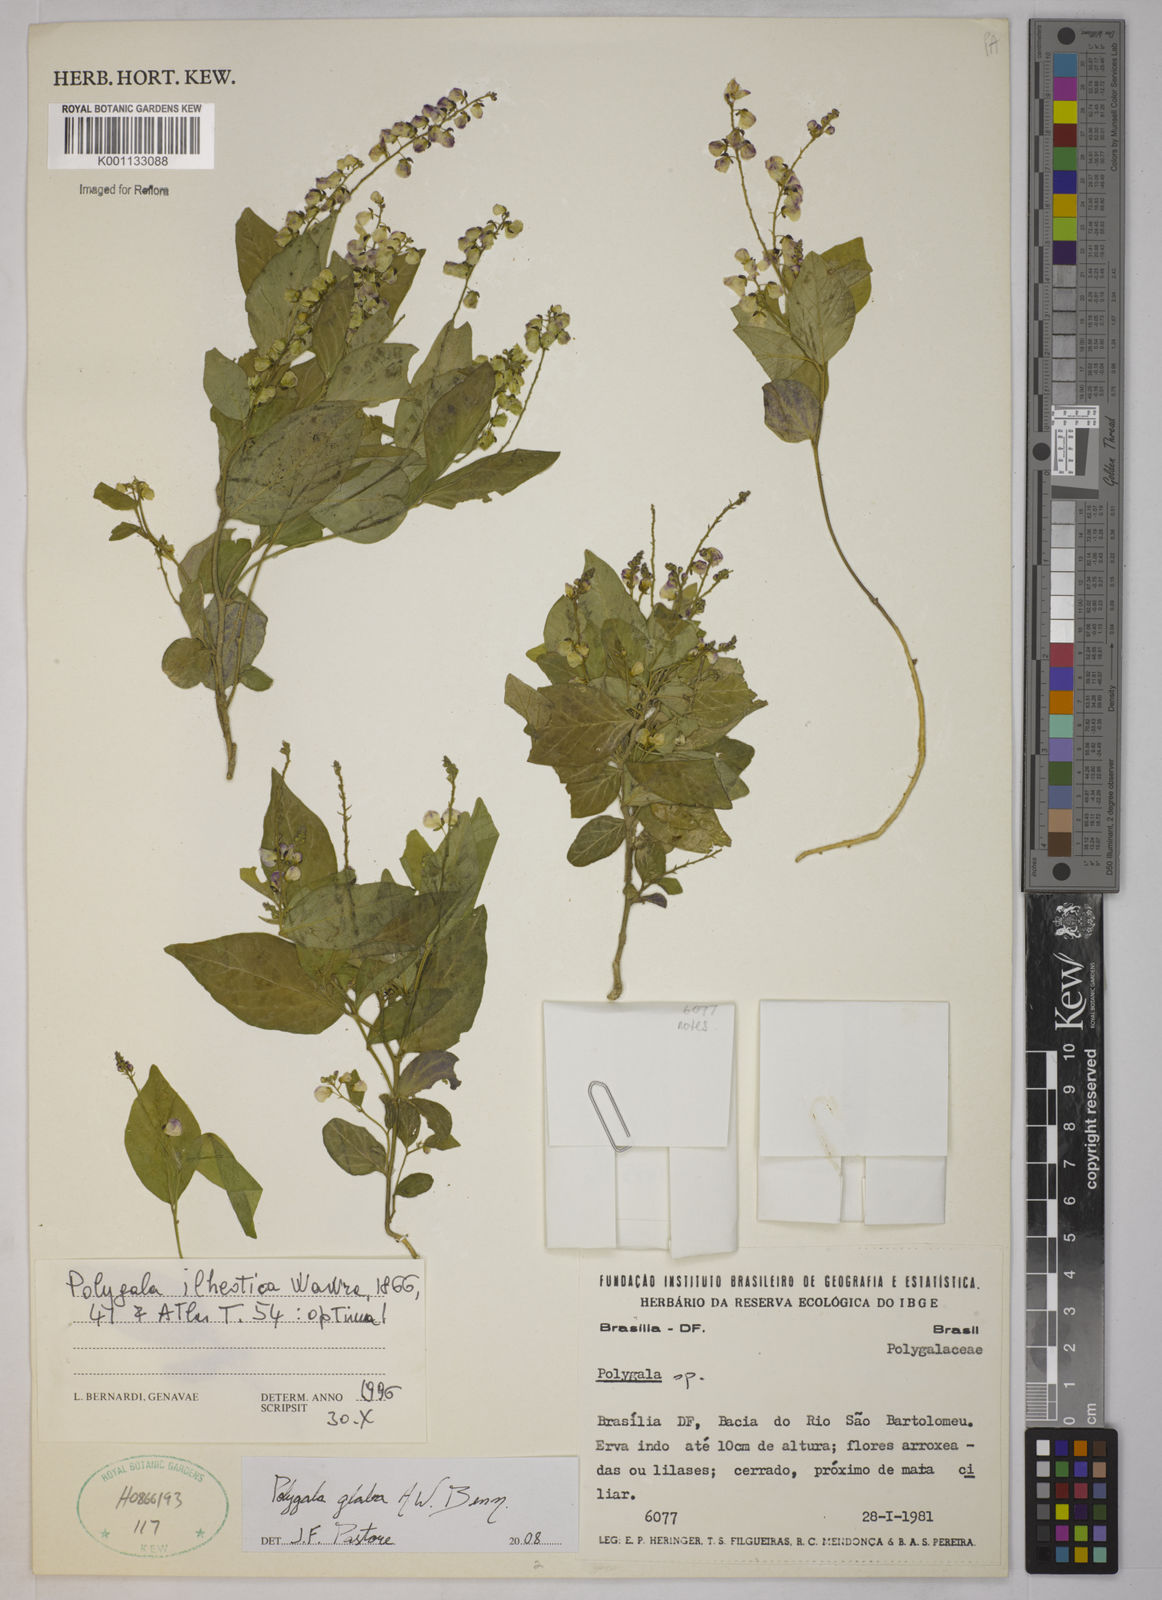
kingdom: Plantae
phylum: Tracheophyta
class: Magnoliopsida
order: Fabales
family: Polygalaceae
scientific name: Polygalaceae
